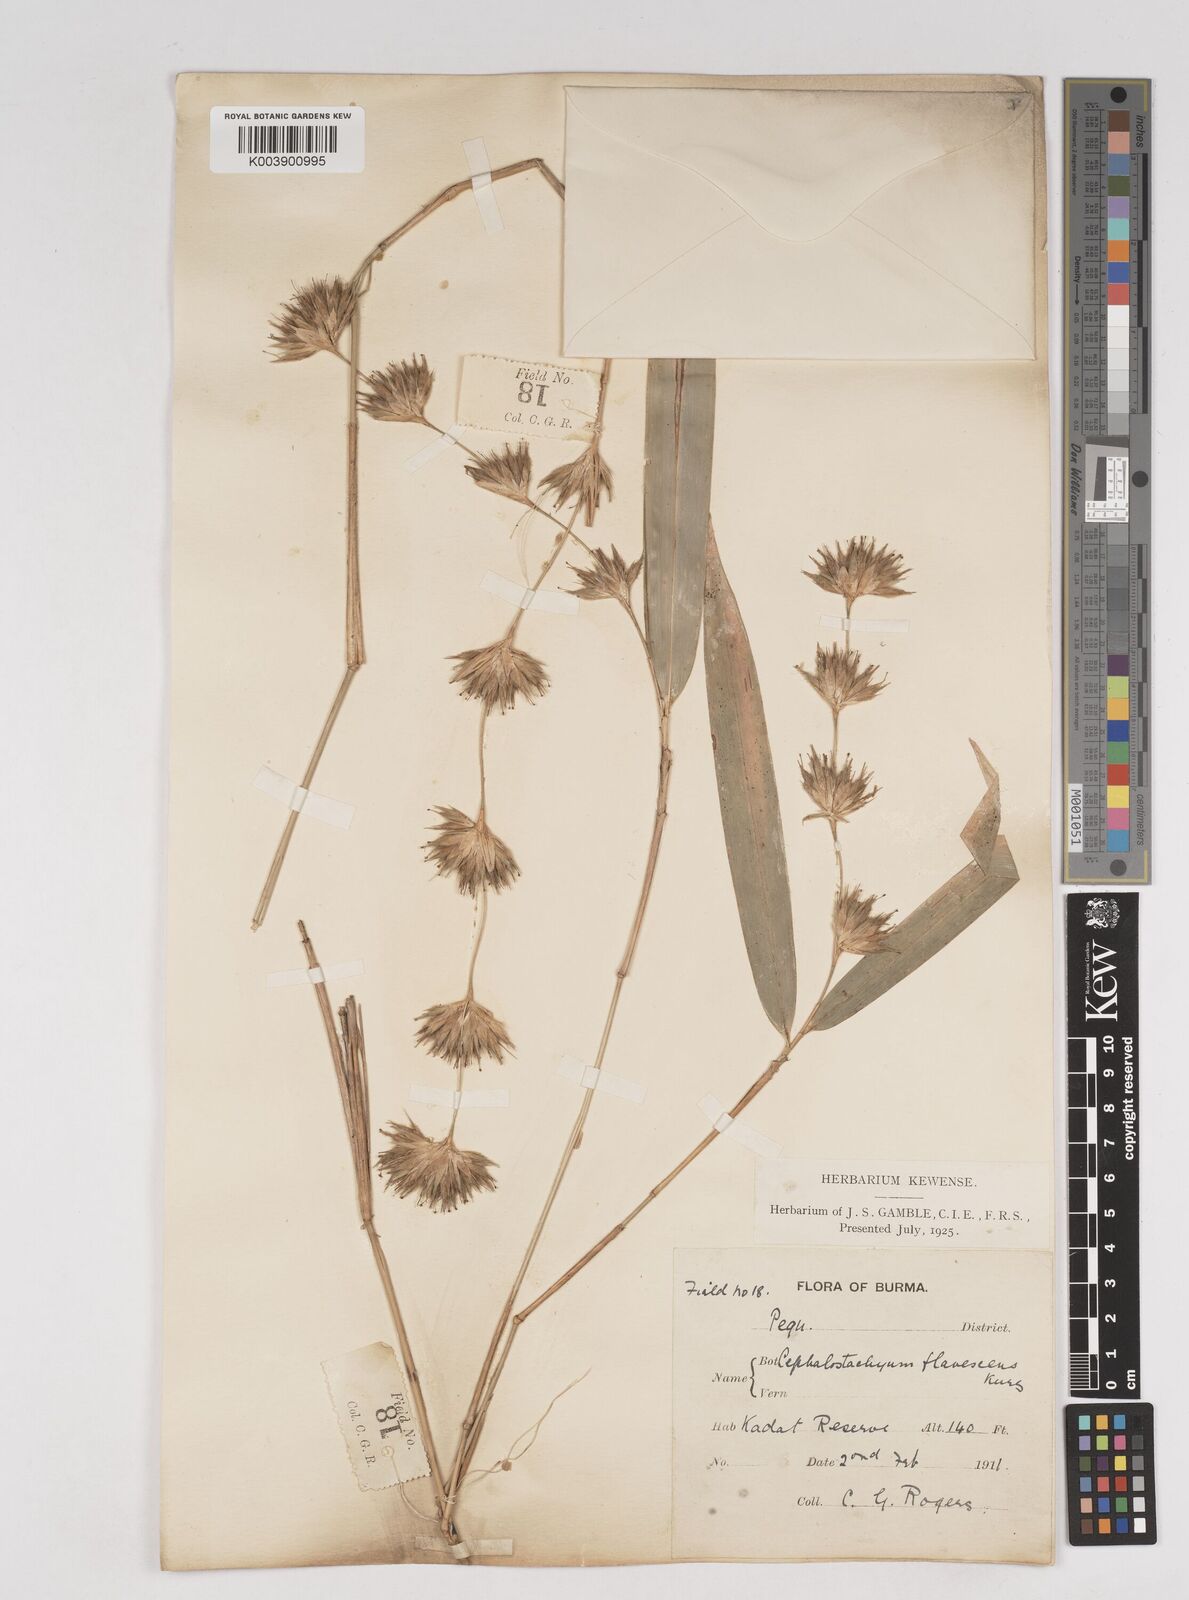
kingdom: Plantae
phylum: Tracheophyta
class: Liliopsida
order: Poales
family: Poaceae
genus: Cephalostachyum
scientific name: Cephalostachyum flavescens
